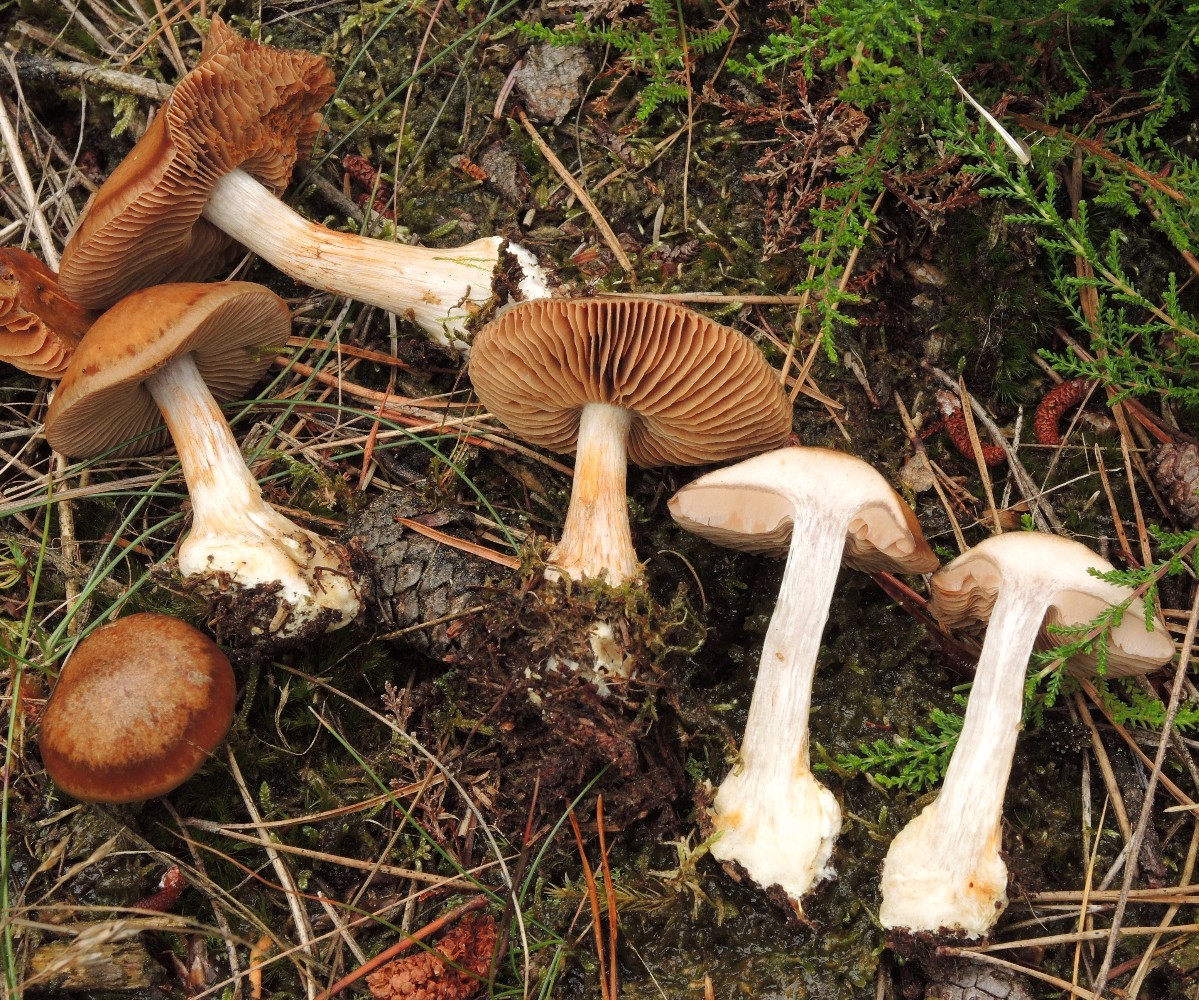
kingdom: Fungi
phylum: Basidiomycota
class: Agaricomycetes
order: Agaricales
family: Cortinariaceae
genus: Thaxterogaster
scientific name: Thaxterogaster sphagnophilus
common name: vandplettet slørhat
